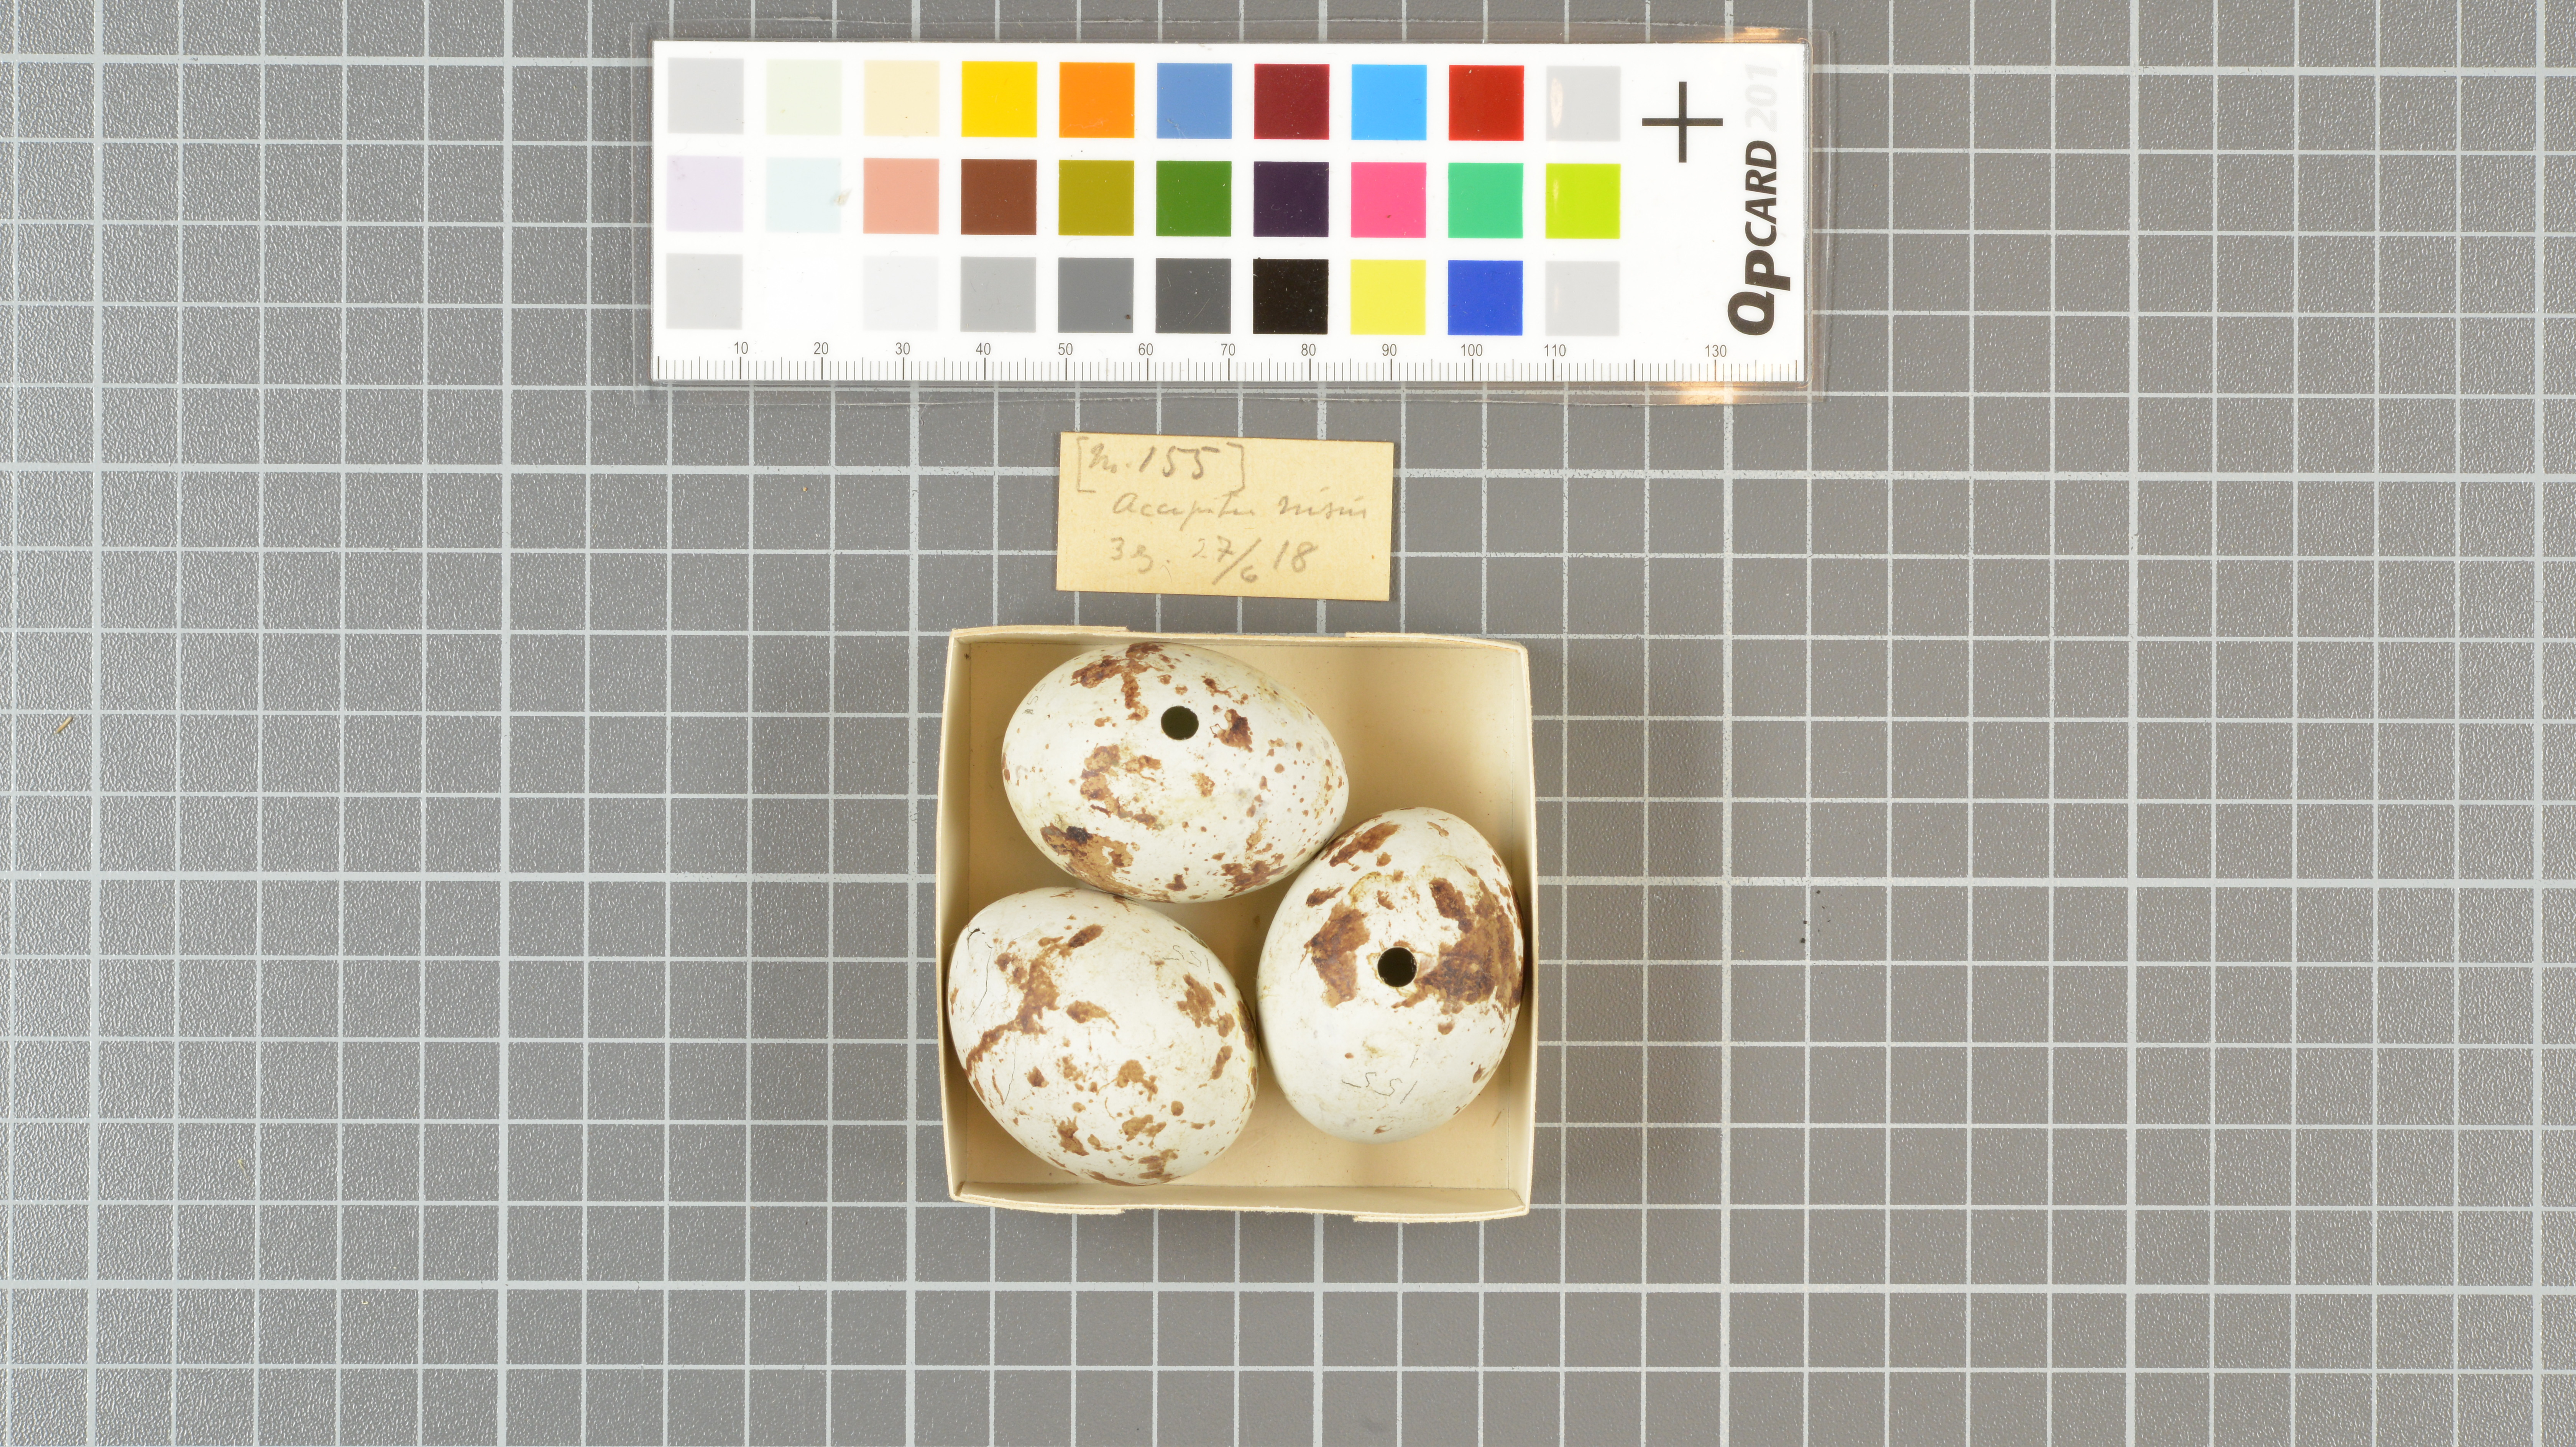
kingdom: Animalia
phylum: Chordata
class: Aves
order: Accipitriformes
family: Accipitridae
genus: Accipiter
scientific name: Accipiter nisus
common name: Eurasian sparrowhawk
